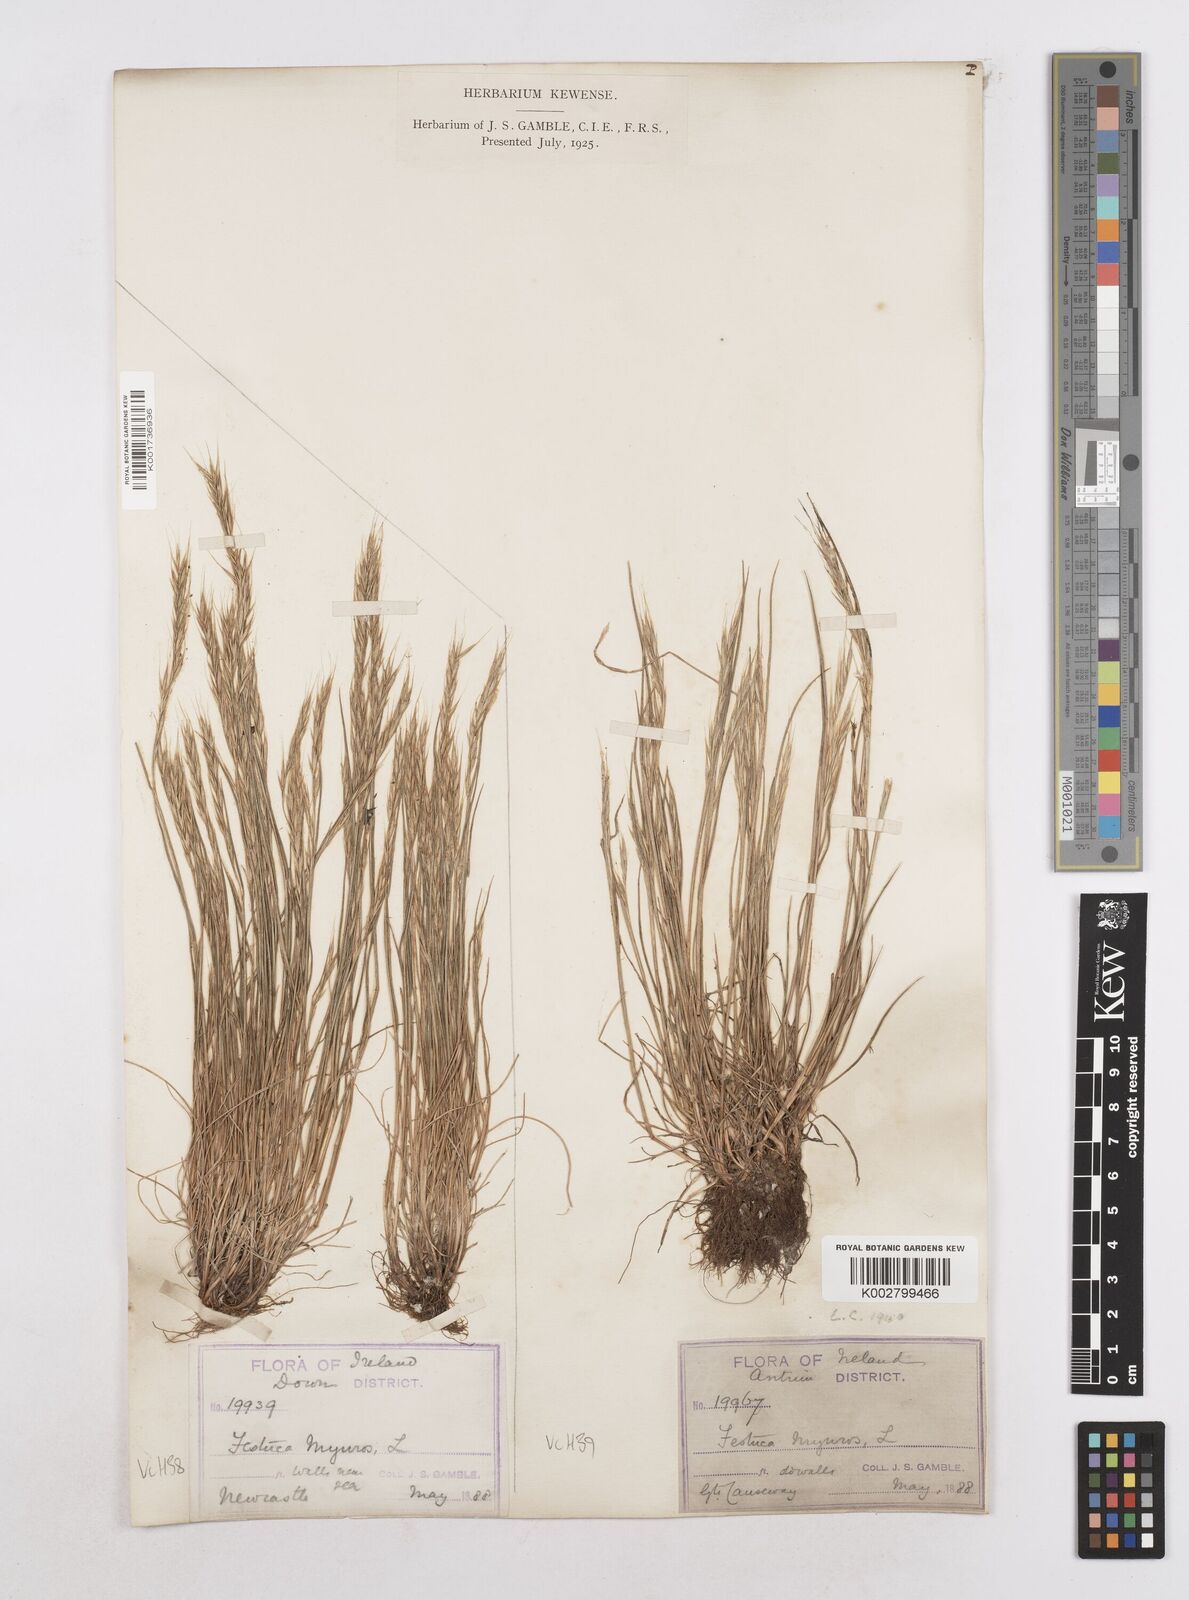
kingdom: Plantae
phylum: Tracheophyta
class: Liliopsida
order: Poales
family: Poaceae
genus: Festuca
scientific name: Festuca myuros
